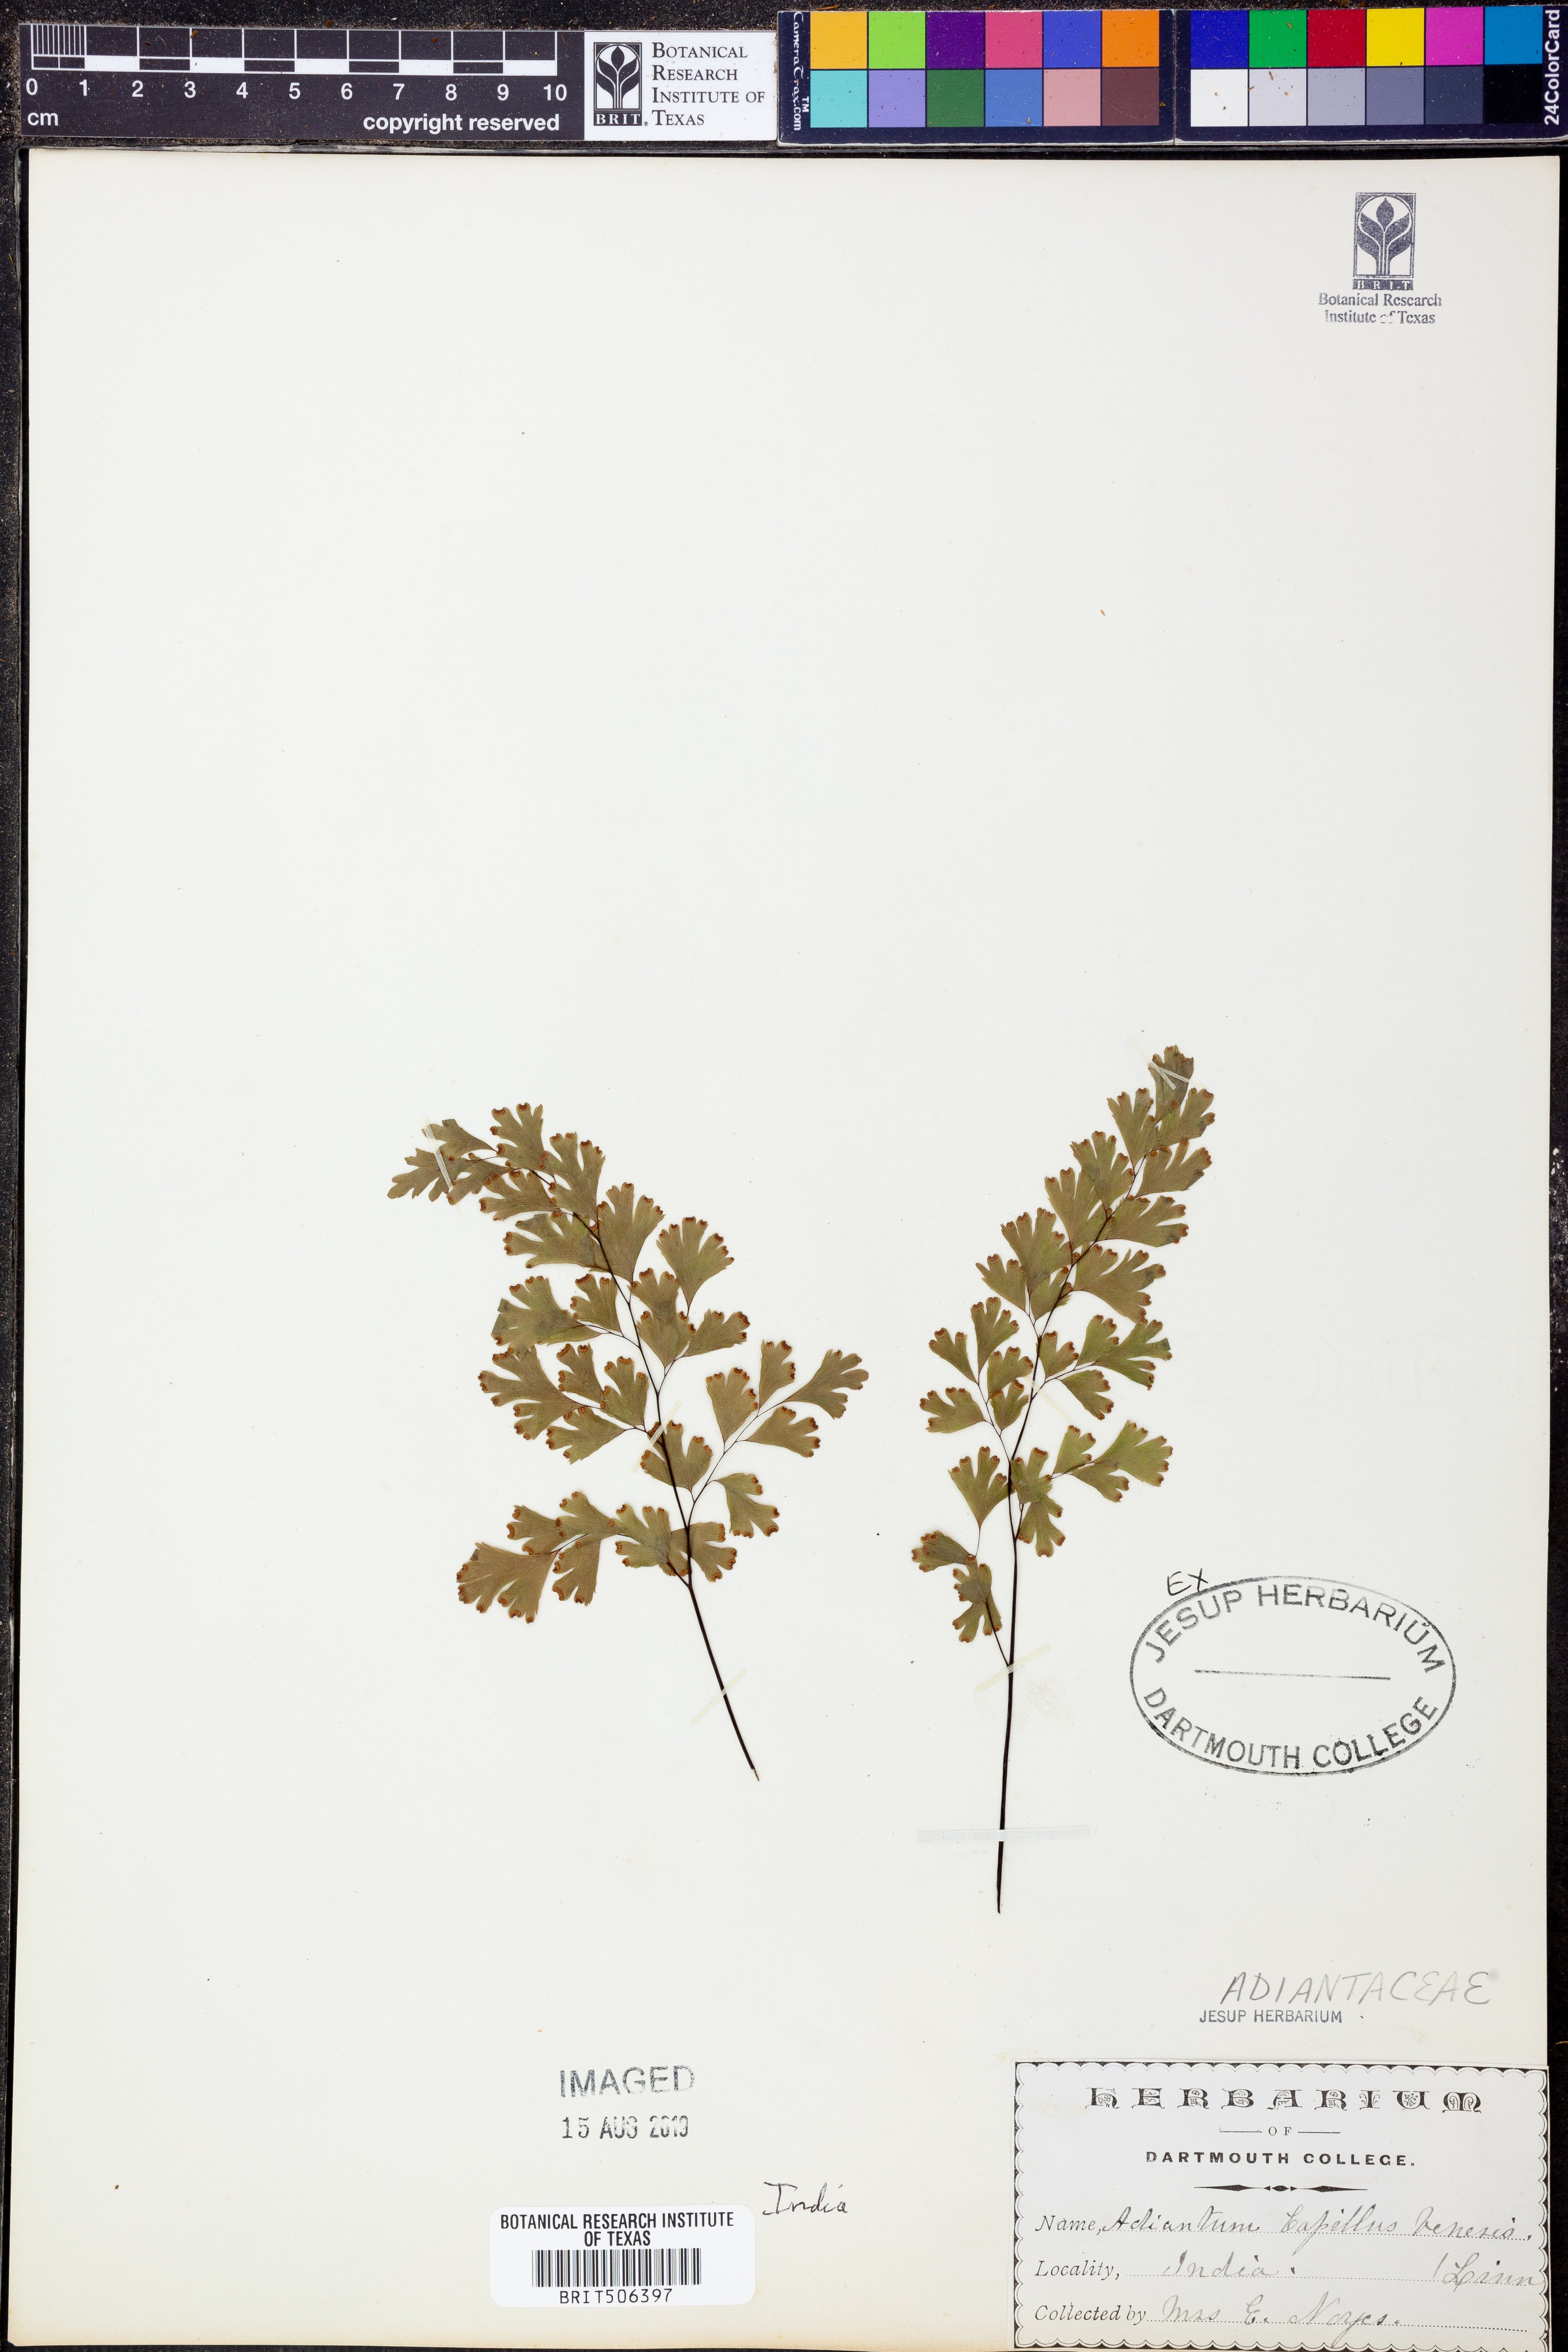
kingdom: Plantae
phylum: Tracheophyta
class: Polypodiopsida
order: Polypodiales
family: Pteridaceae
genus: Adiantum
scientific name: Adiantum capillus-veneris
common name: Maidenhair fern
